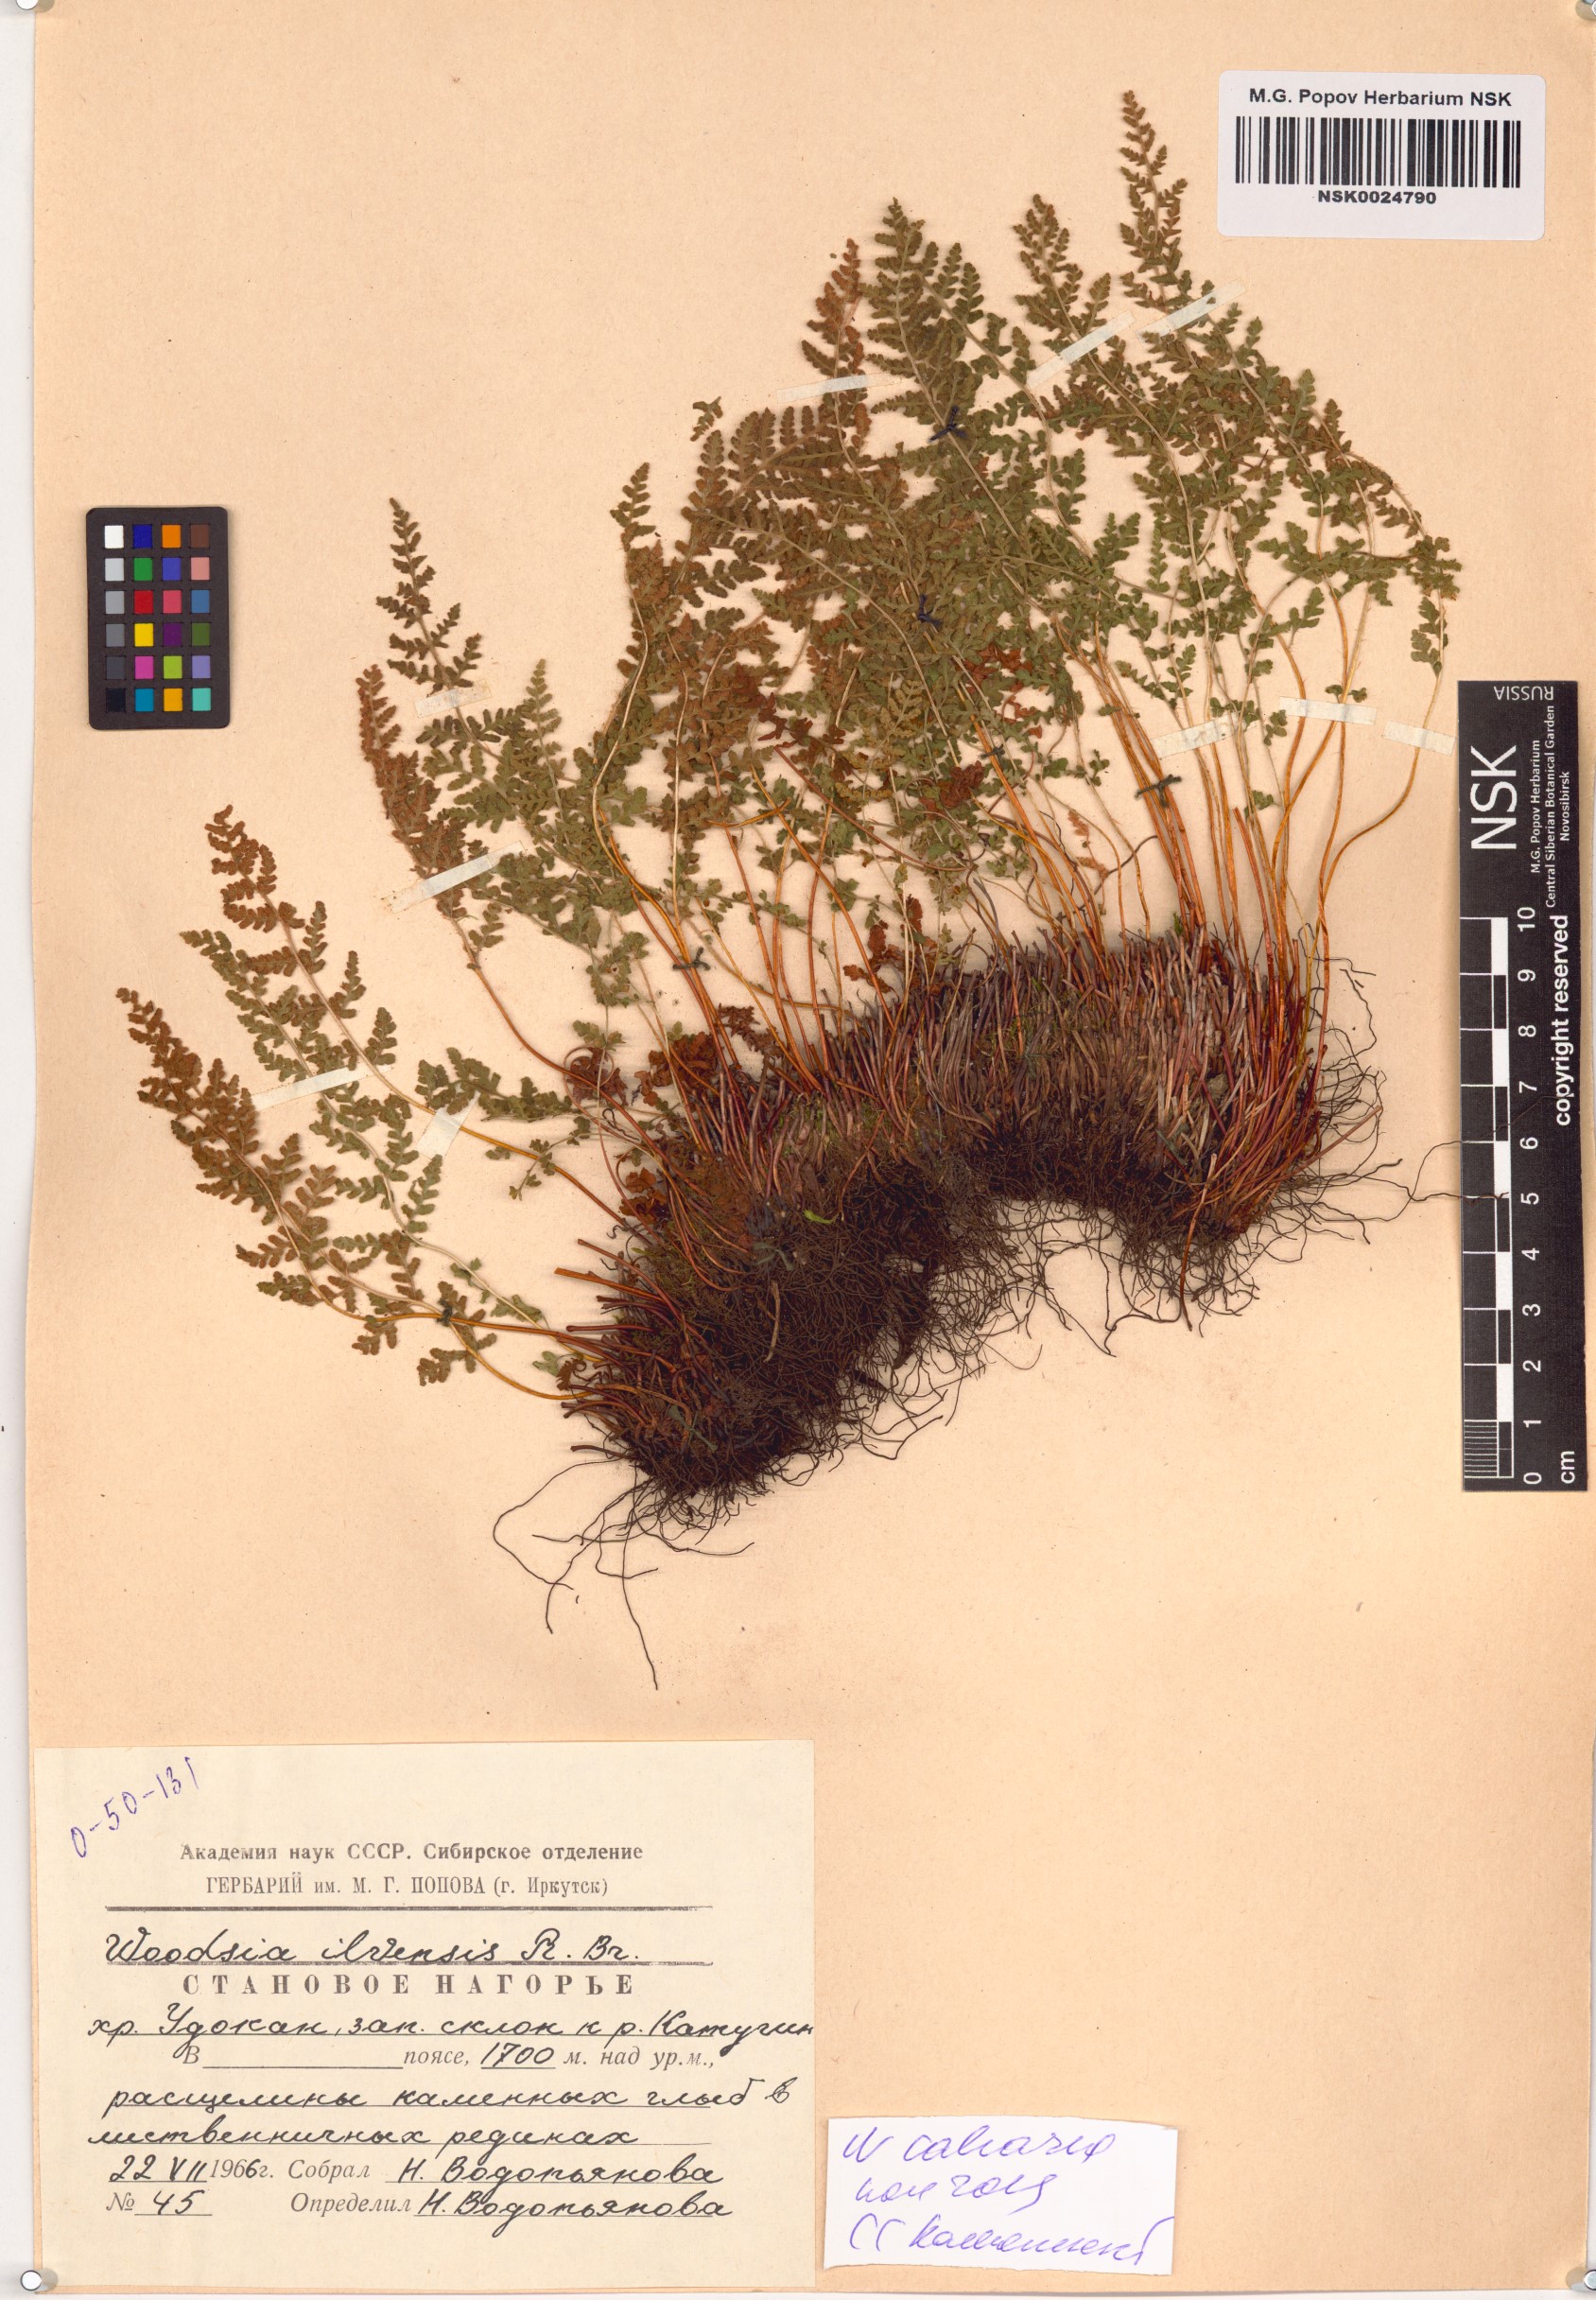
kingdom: Plantae
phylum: Tracheophyta
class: Polypodiopsida
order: Polypodiales
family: Woodsiaceae
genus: Woodsia
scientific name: Woodsia calcarea
